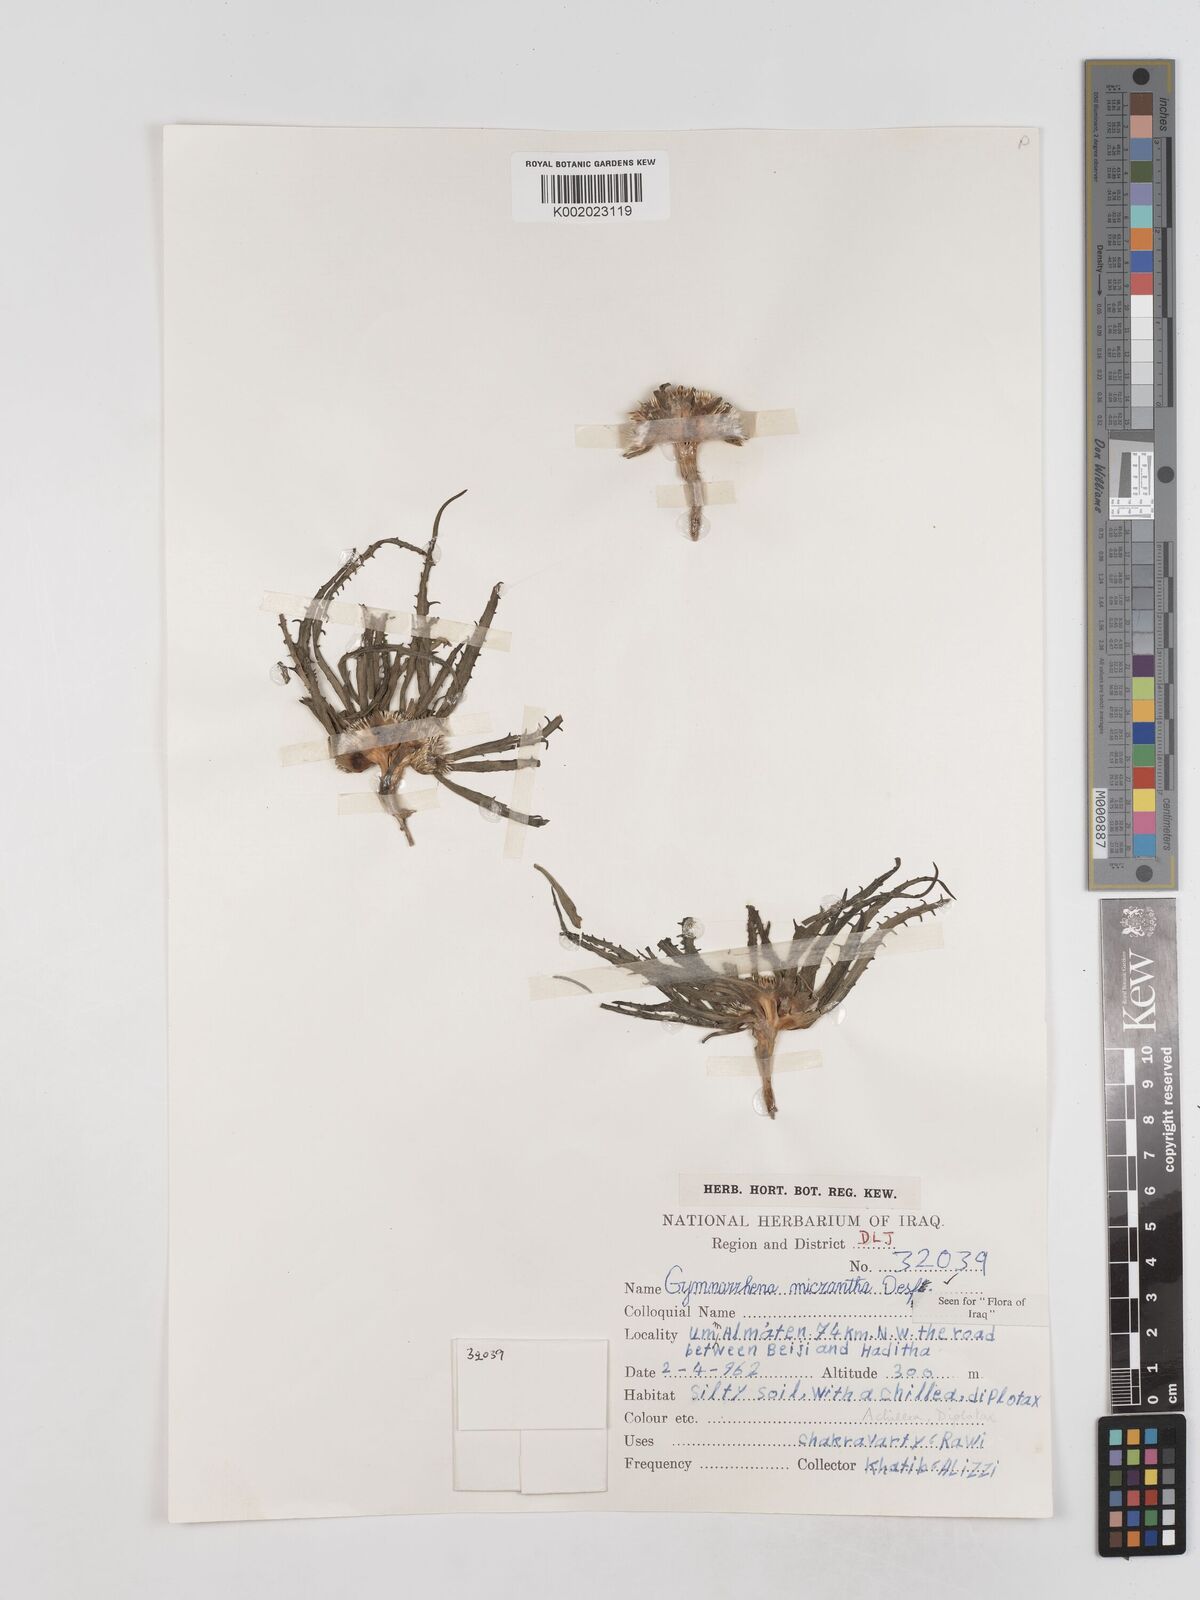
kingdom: Plantae
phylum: Tracheophyta
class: Magnoliopsida
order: Asterales
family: Asteraceae
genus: Gymnarrhena
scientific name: Gymnarrhena micrantha
